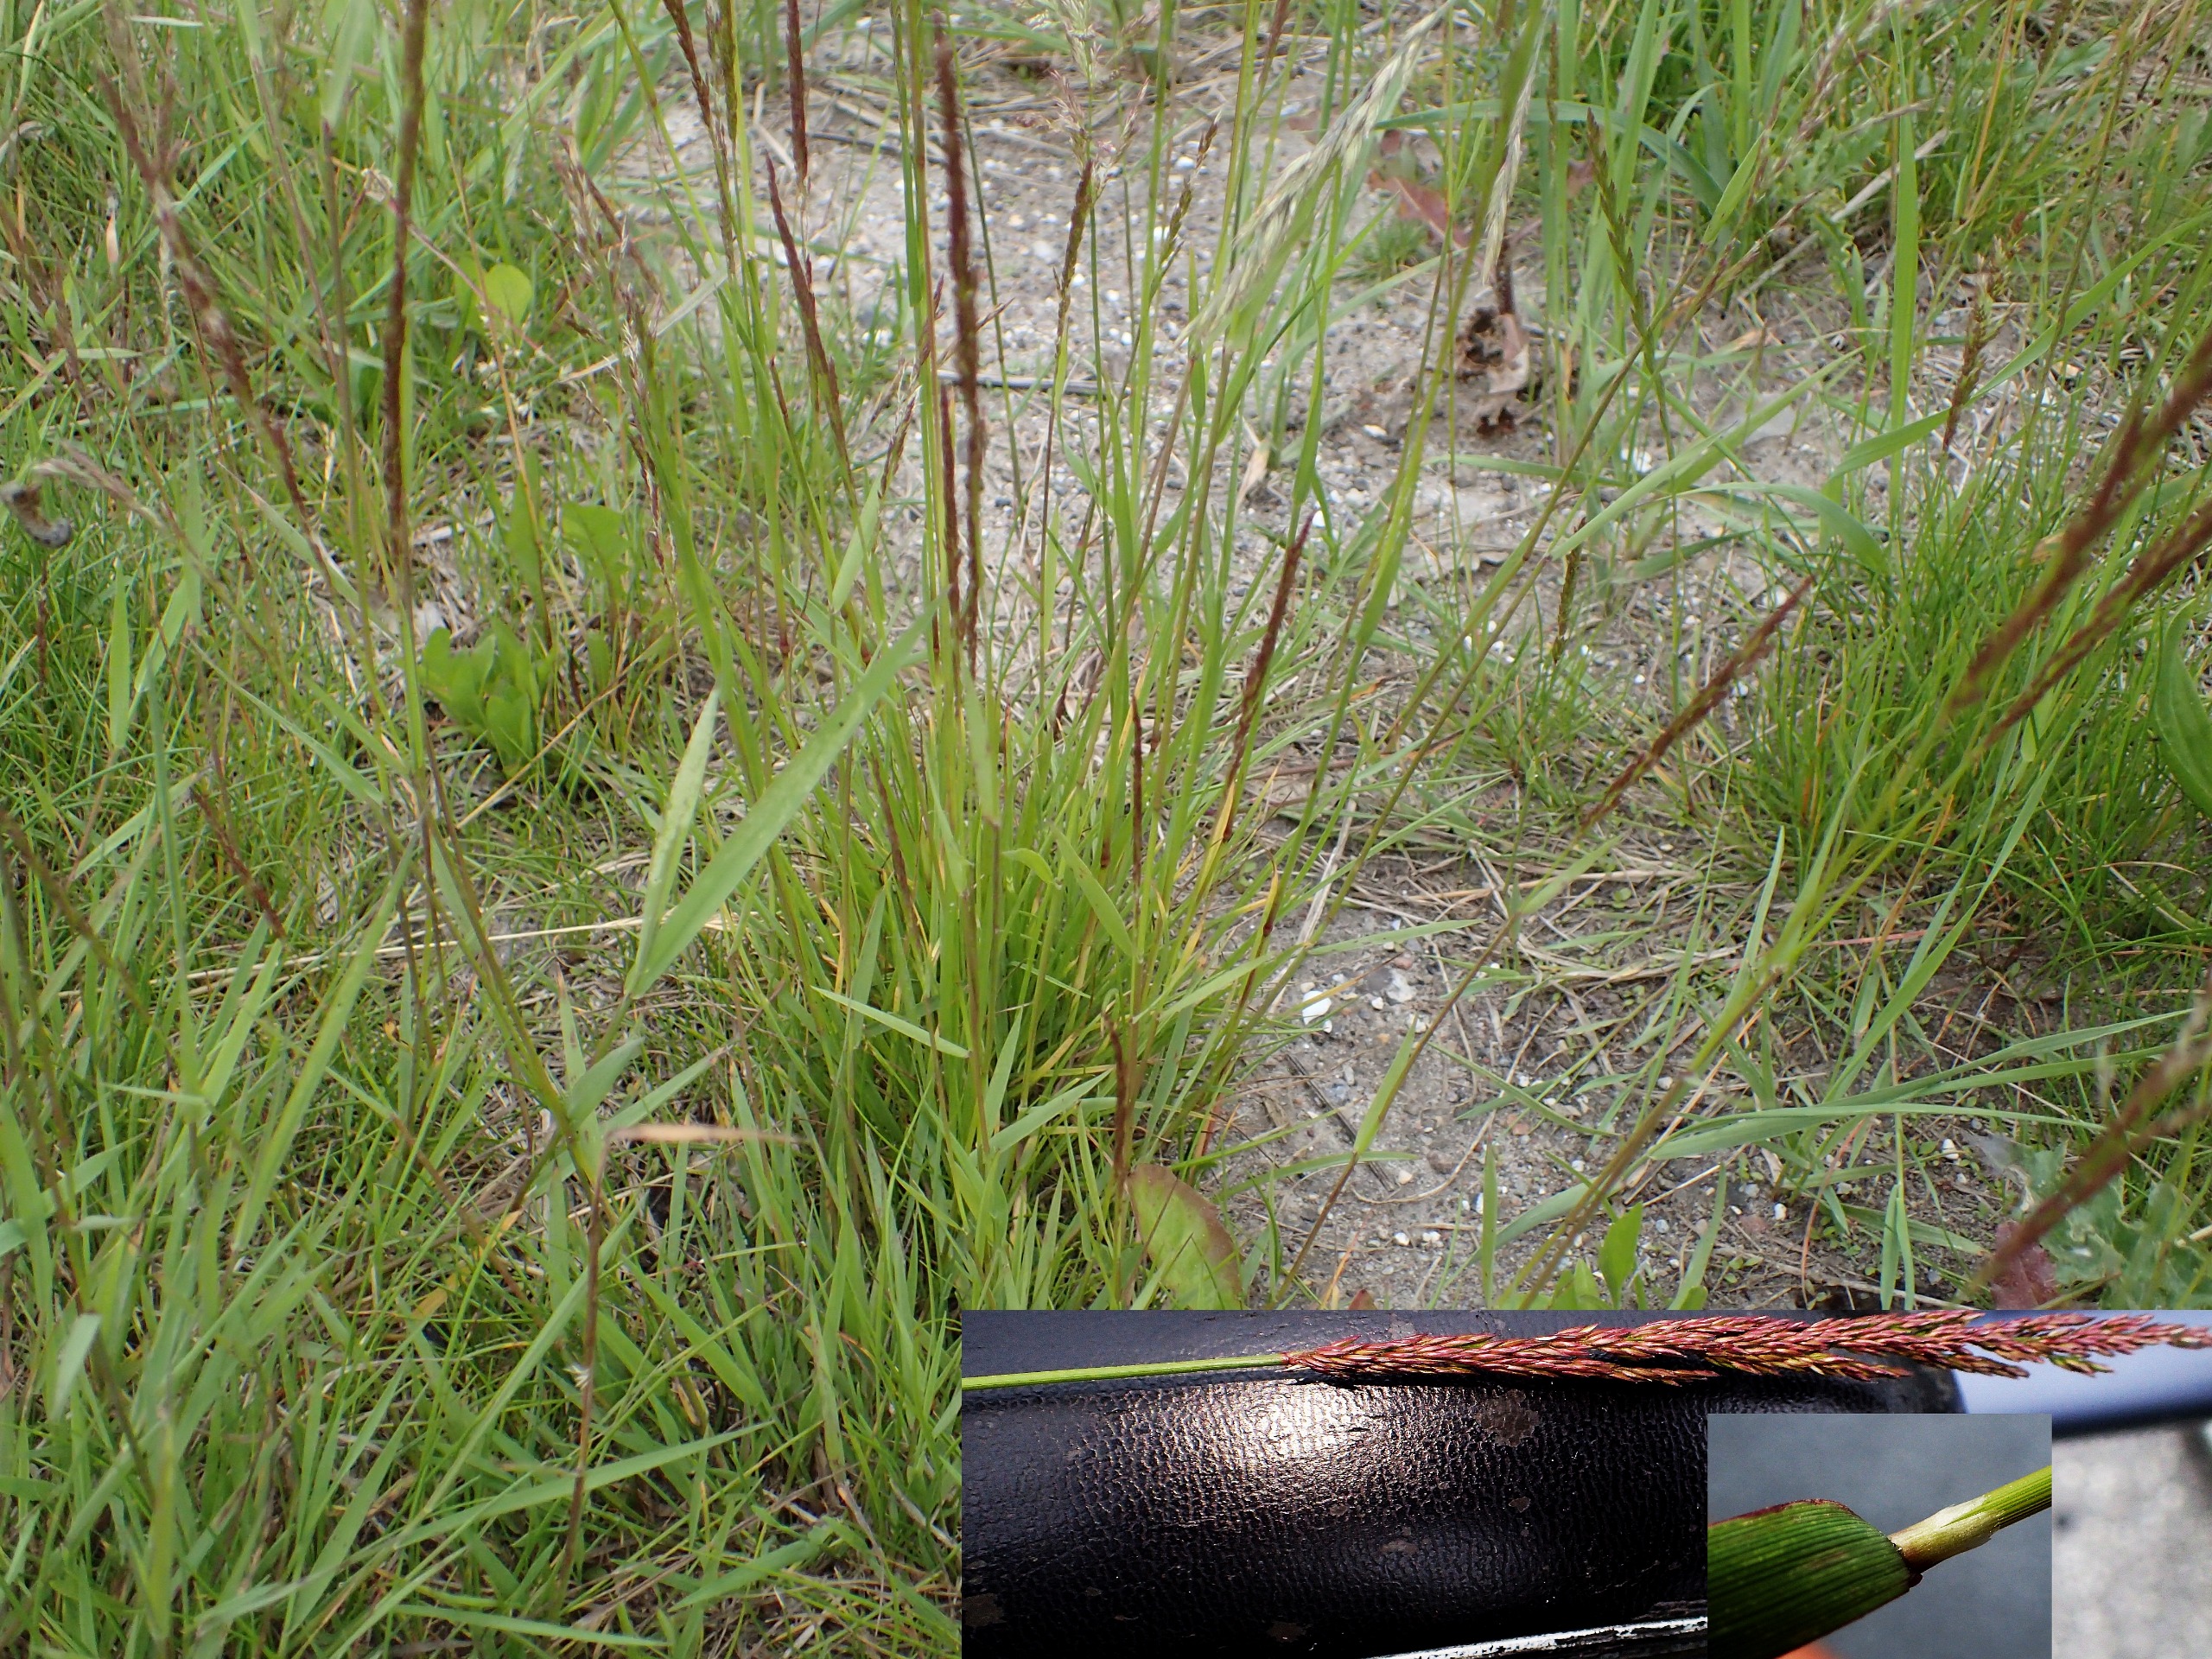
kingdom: Plantae
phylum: Tracheophyta
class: Liliopsida
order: Poales
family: Poaceae
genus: Agrostis
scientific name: Agrostis stolonifera
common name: Kryb-hvene
